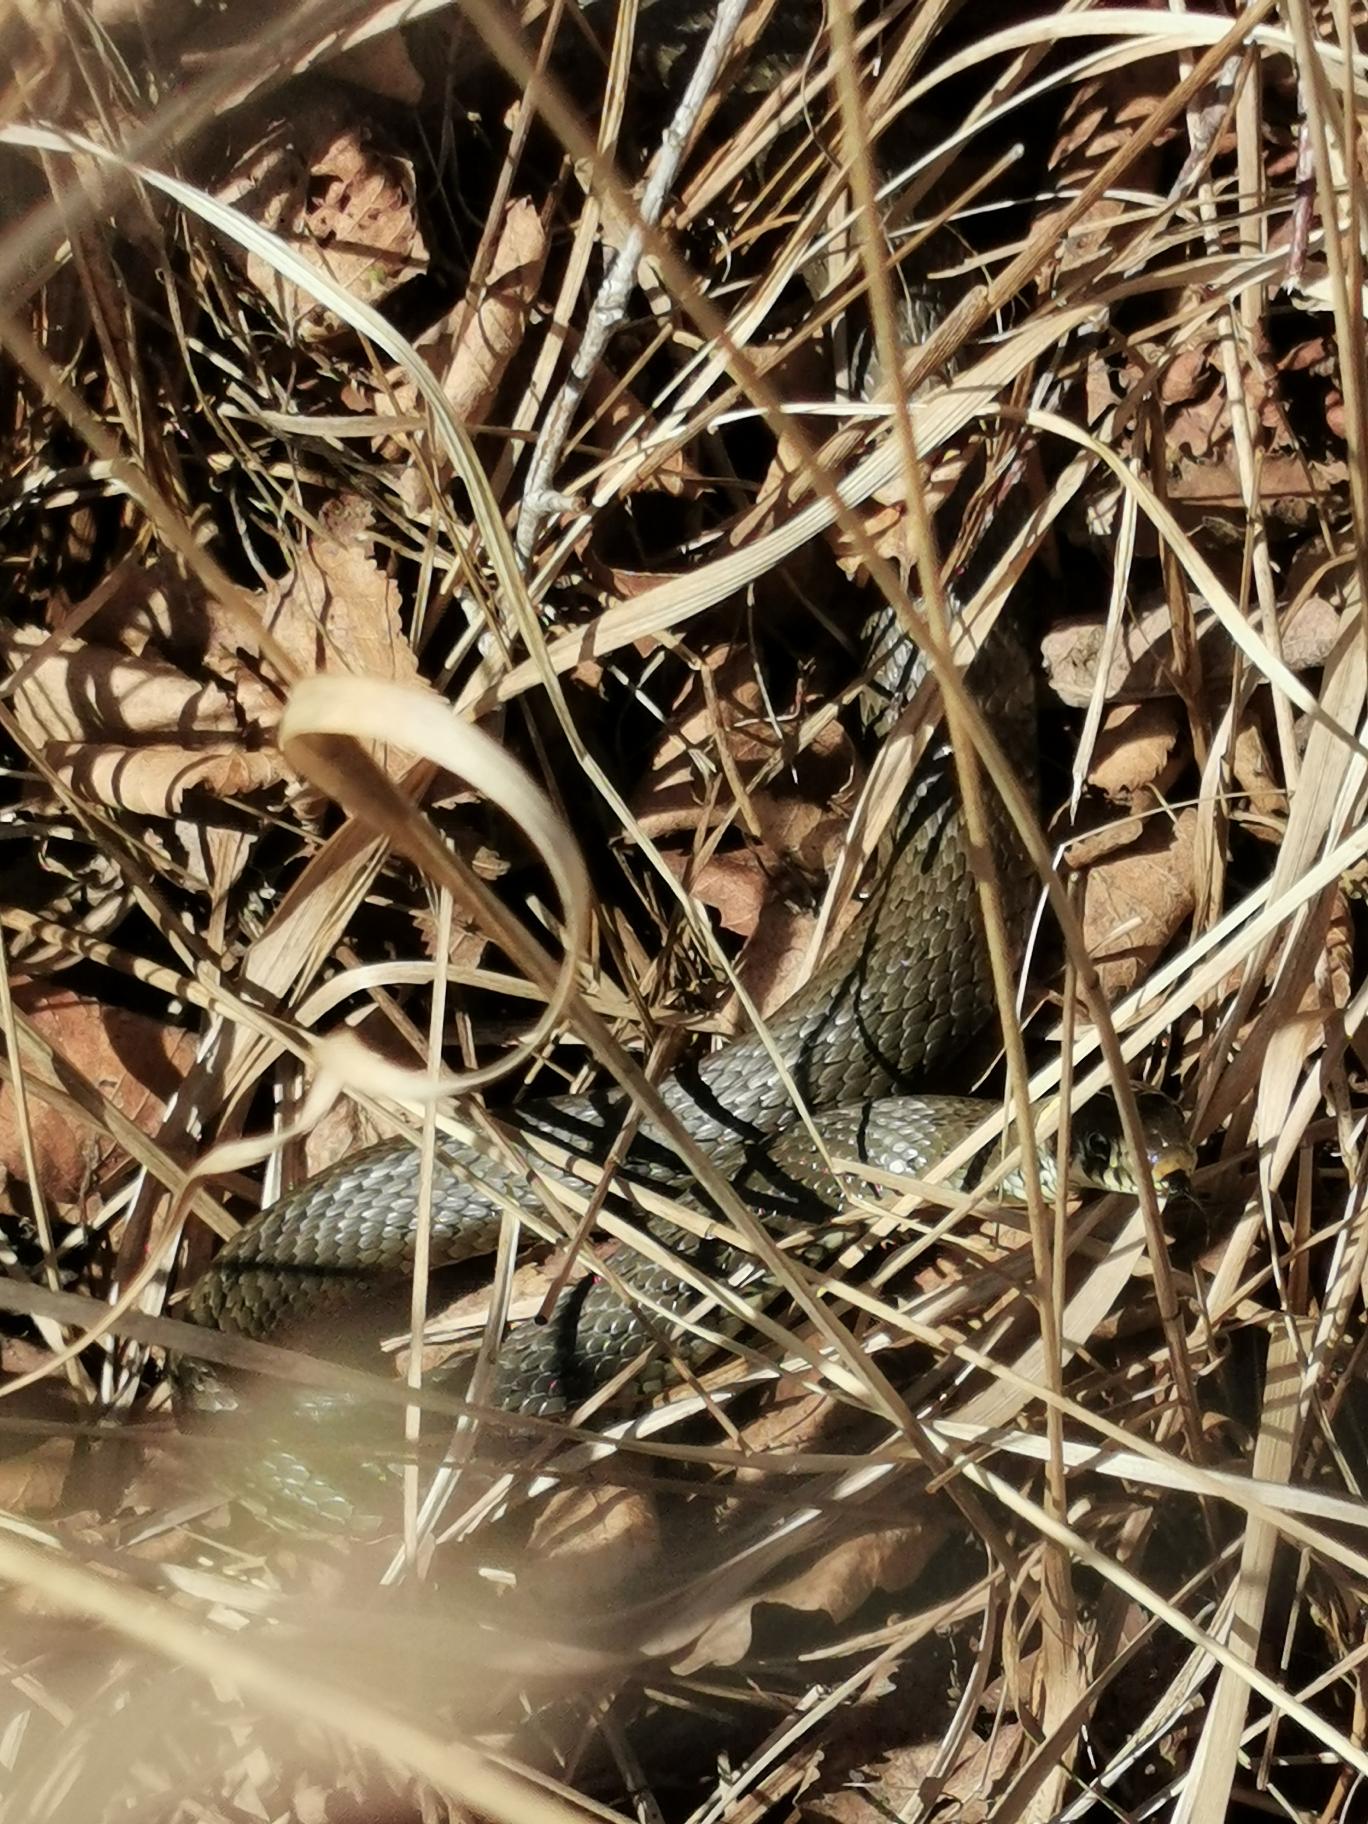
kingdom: Animalia
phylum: Chordata
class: Squamata
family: Colubridae
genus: Natrix
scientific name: Natrix natrix
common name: Snog
